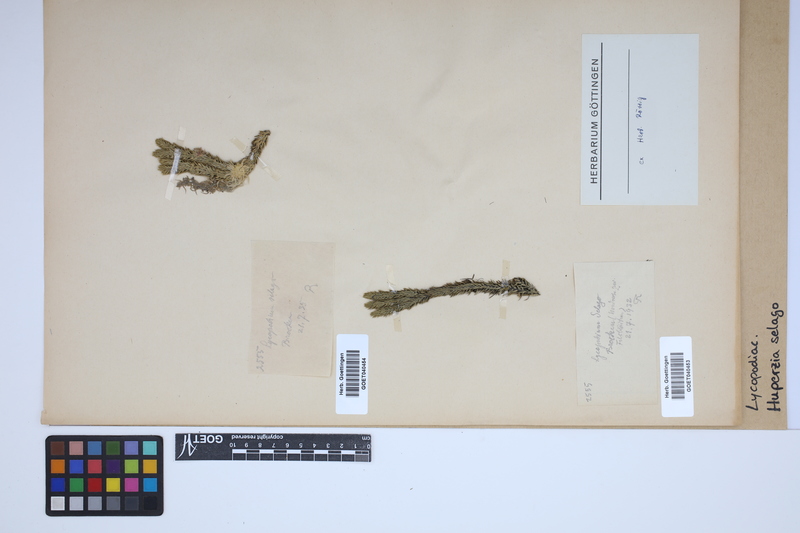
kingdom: Plantae
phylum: Tracheophyta
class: Lycopodiopsida
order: Lycopodiales
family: Lycopodiaceae
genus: Huperzia
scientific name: Huperzia selago
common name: Northern firmoss
